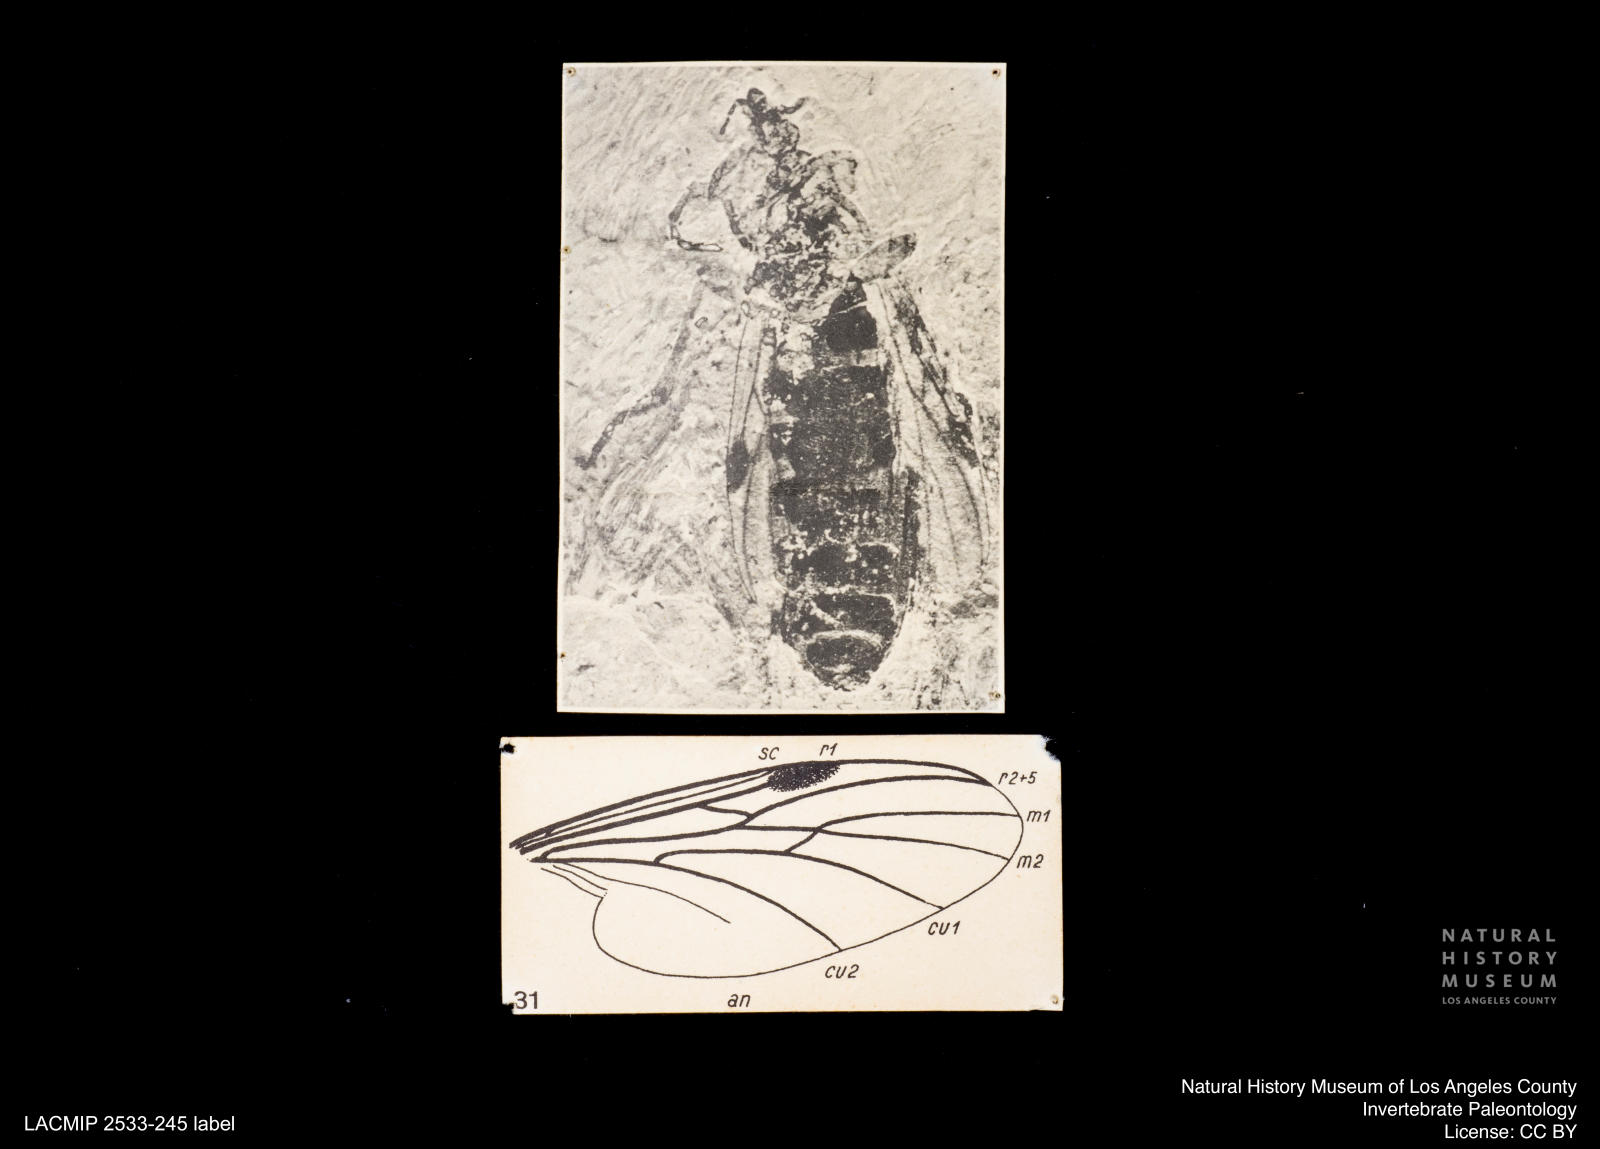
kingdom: Animalia
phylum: Arthropoda
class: Insecta
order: Diptera
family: Bibionidae
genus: Bibio
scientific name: Bibio vulpinus
